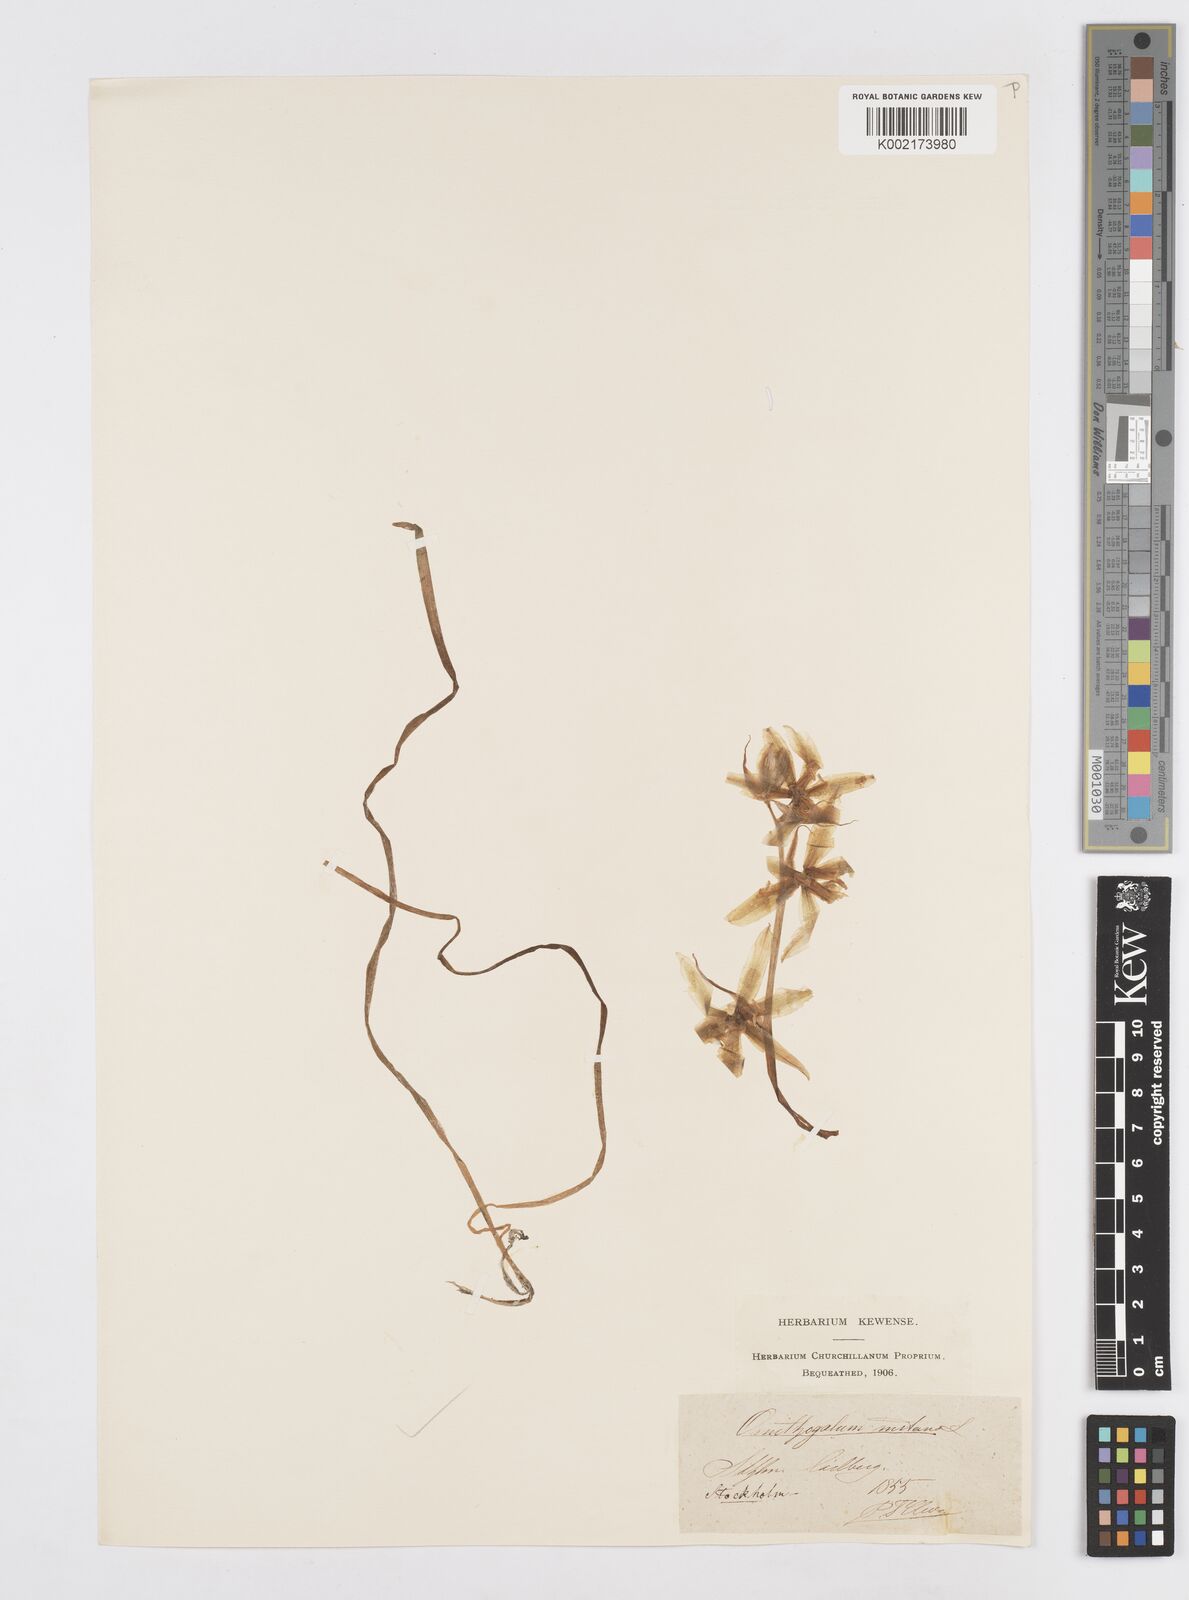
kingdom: Plantae
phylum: Tracheophyta
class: Liliopsida
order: Asparagales
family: Asparagaceae
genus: Ornithogalum
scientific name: Ornithogalum nutans
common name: Drooping star-of-bethlehem
